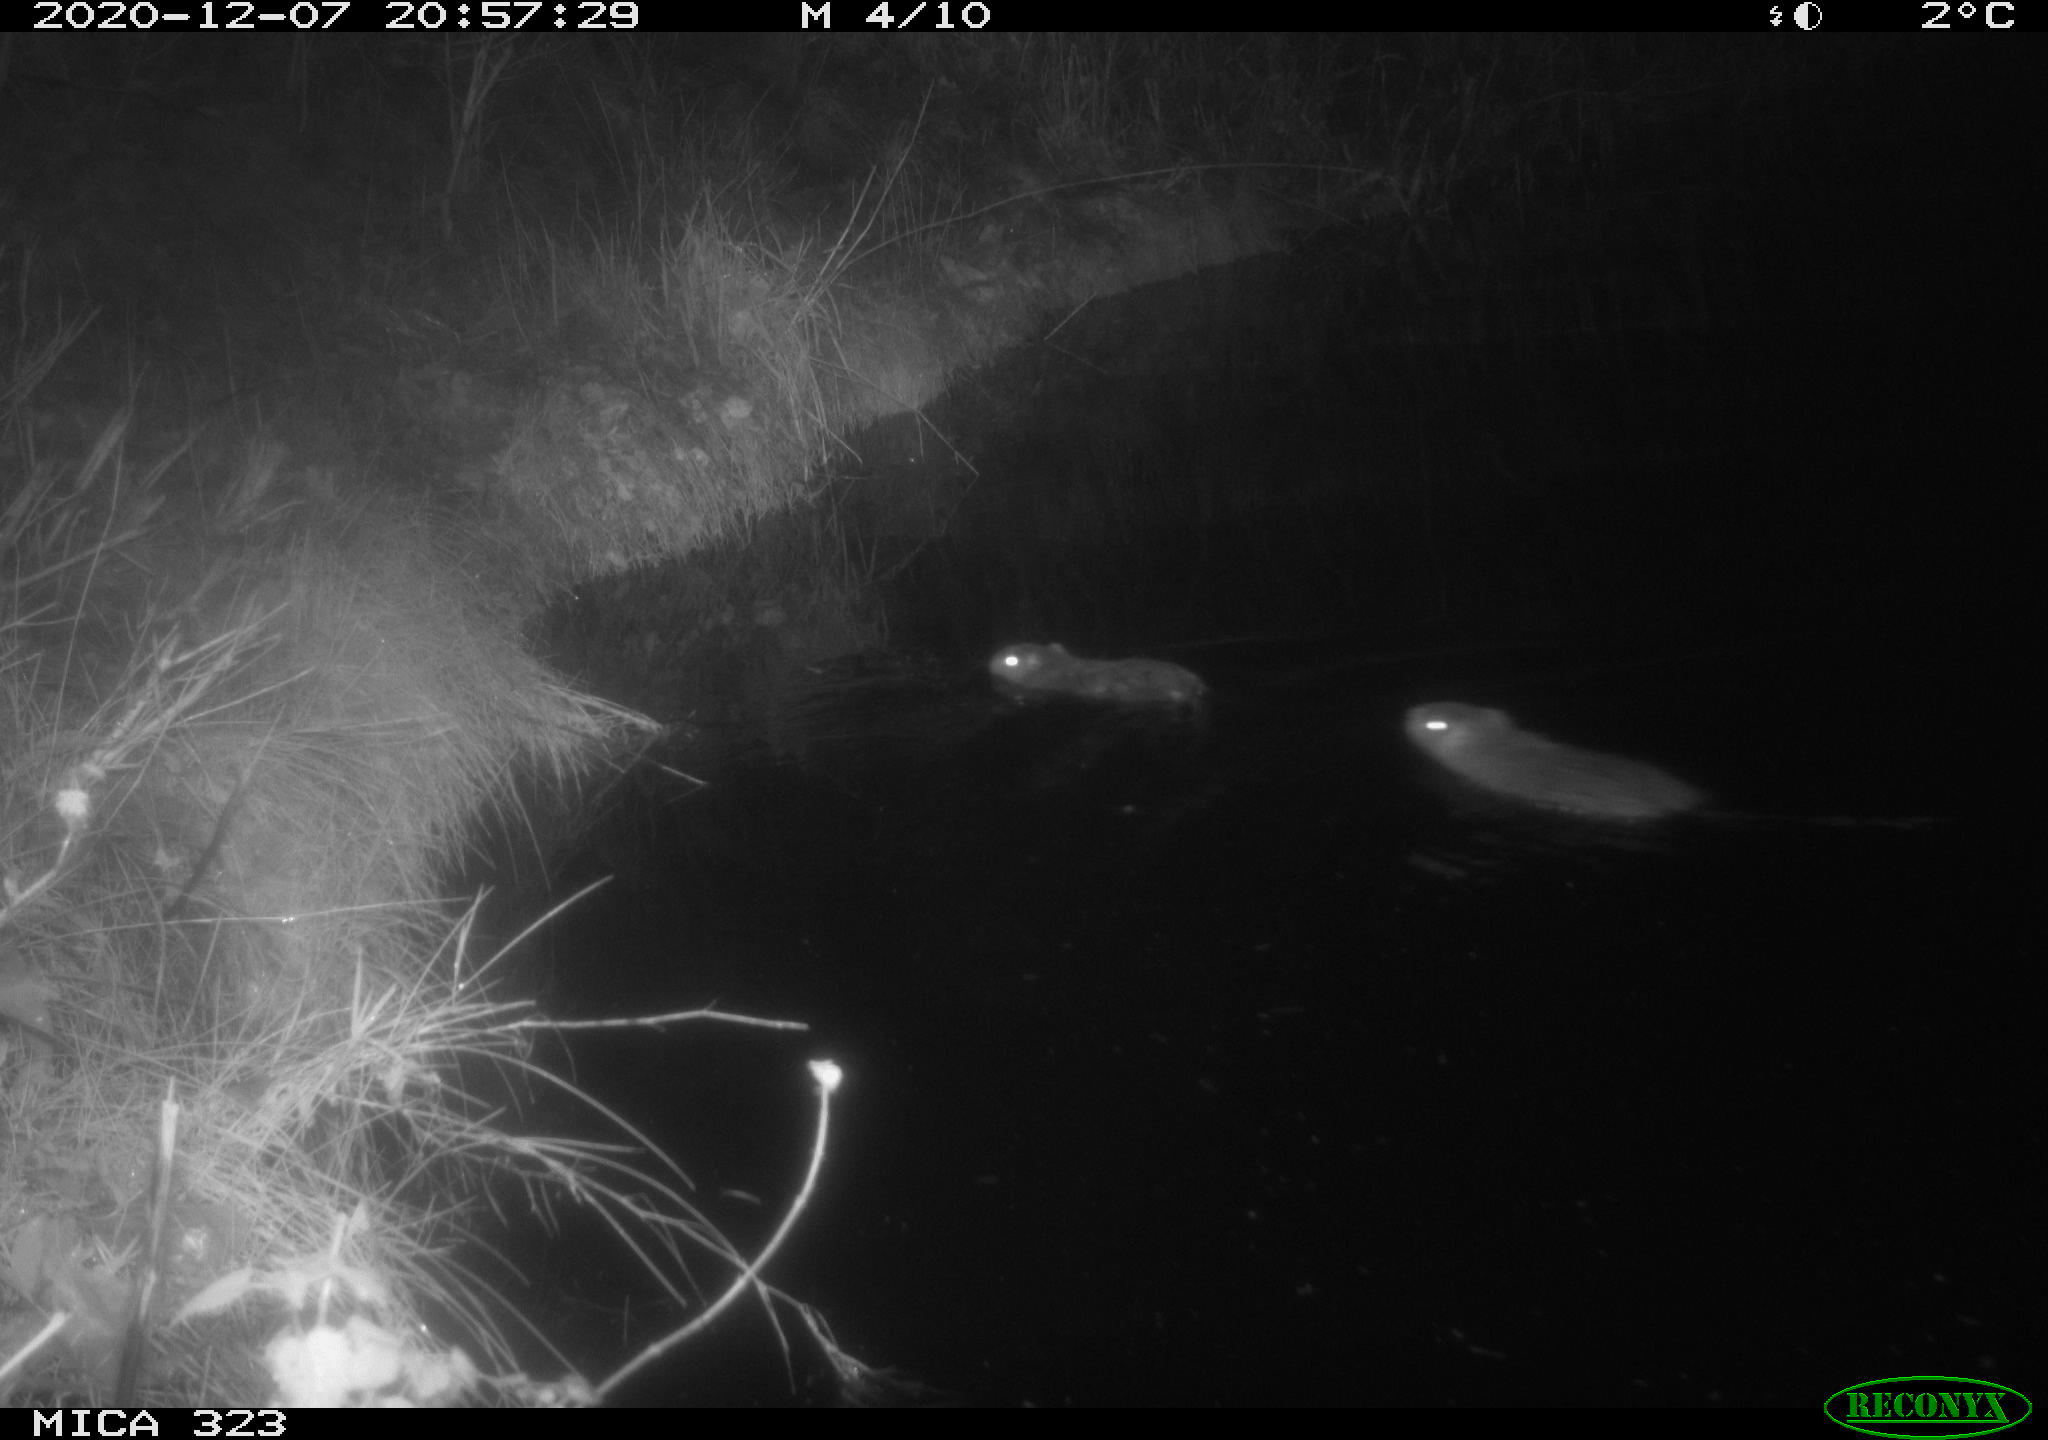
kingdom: Animalia
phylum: Chordata
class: Mammalia
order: Rodentia
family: Myocastoridae
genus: Myocastor
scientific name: Myocastor coypus
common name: Coypu
